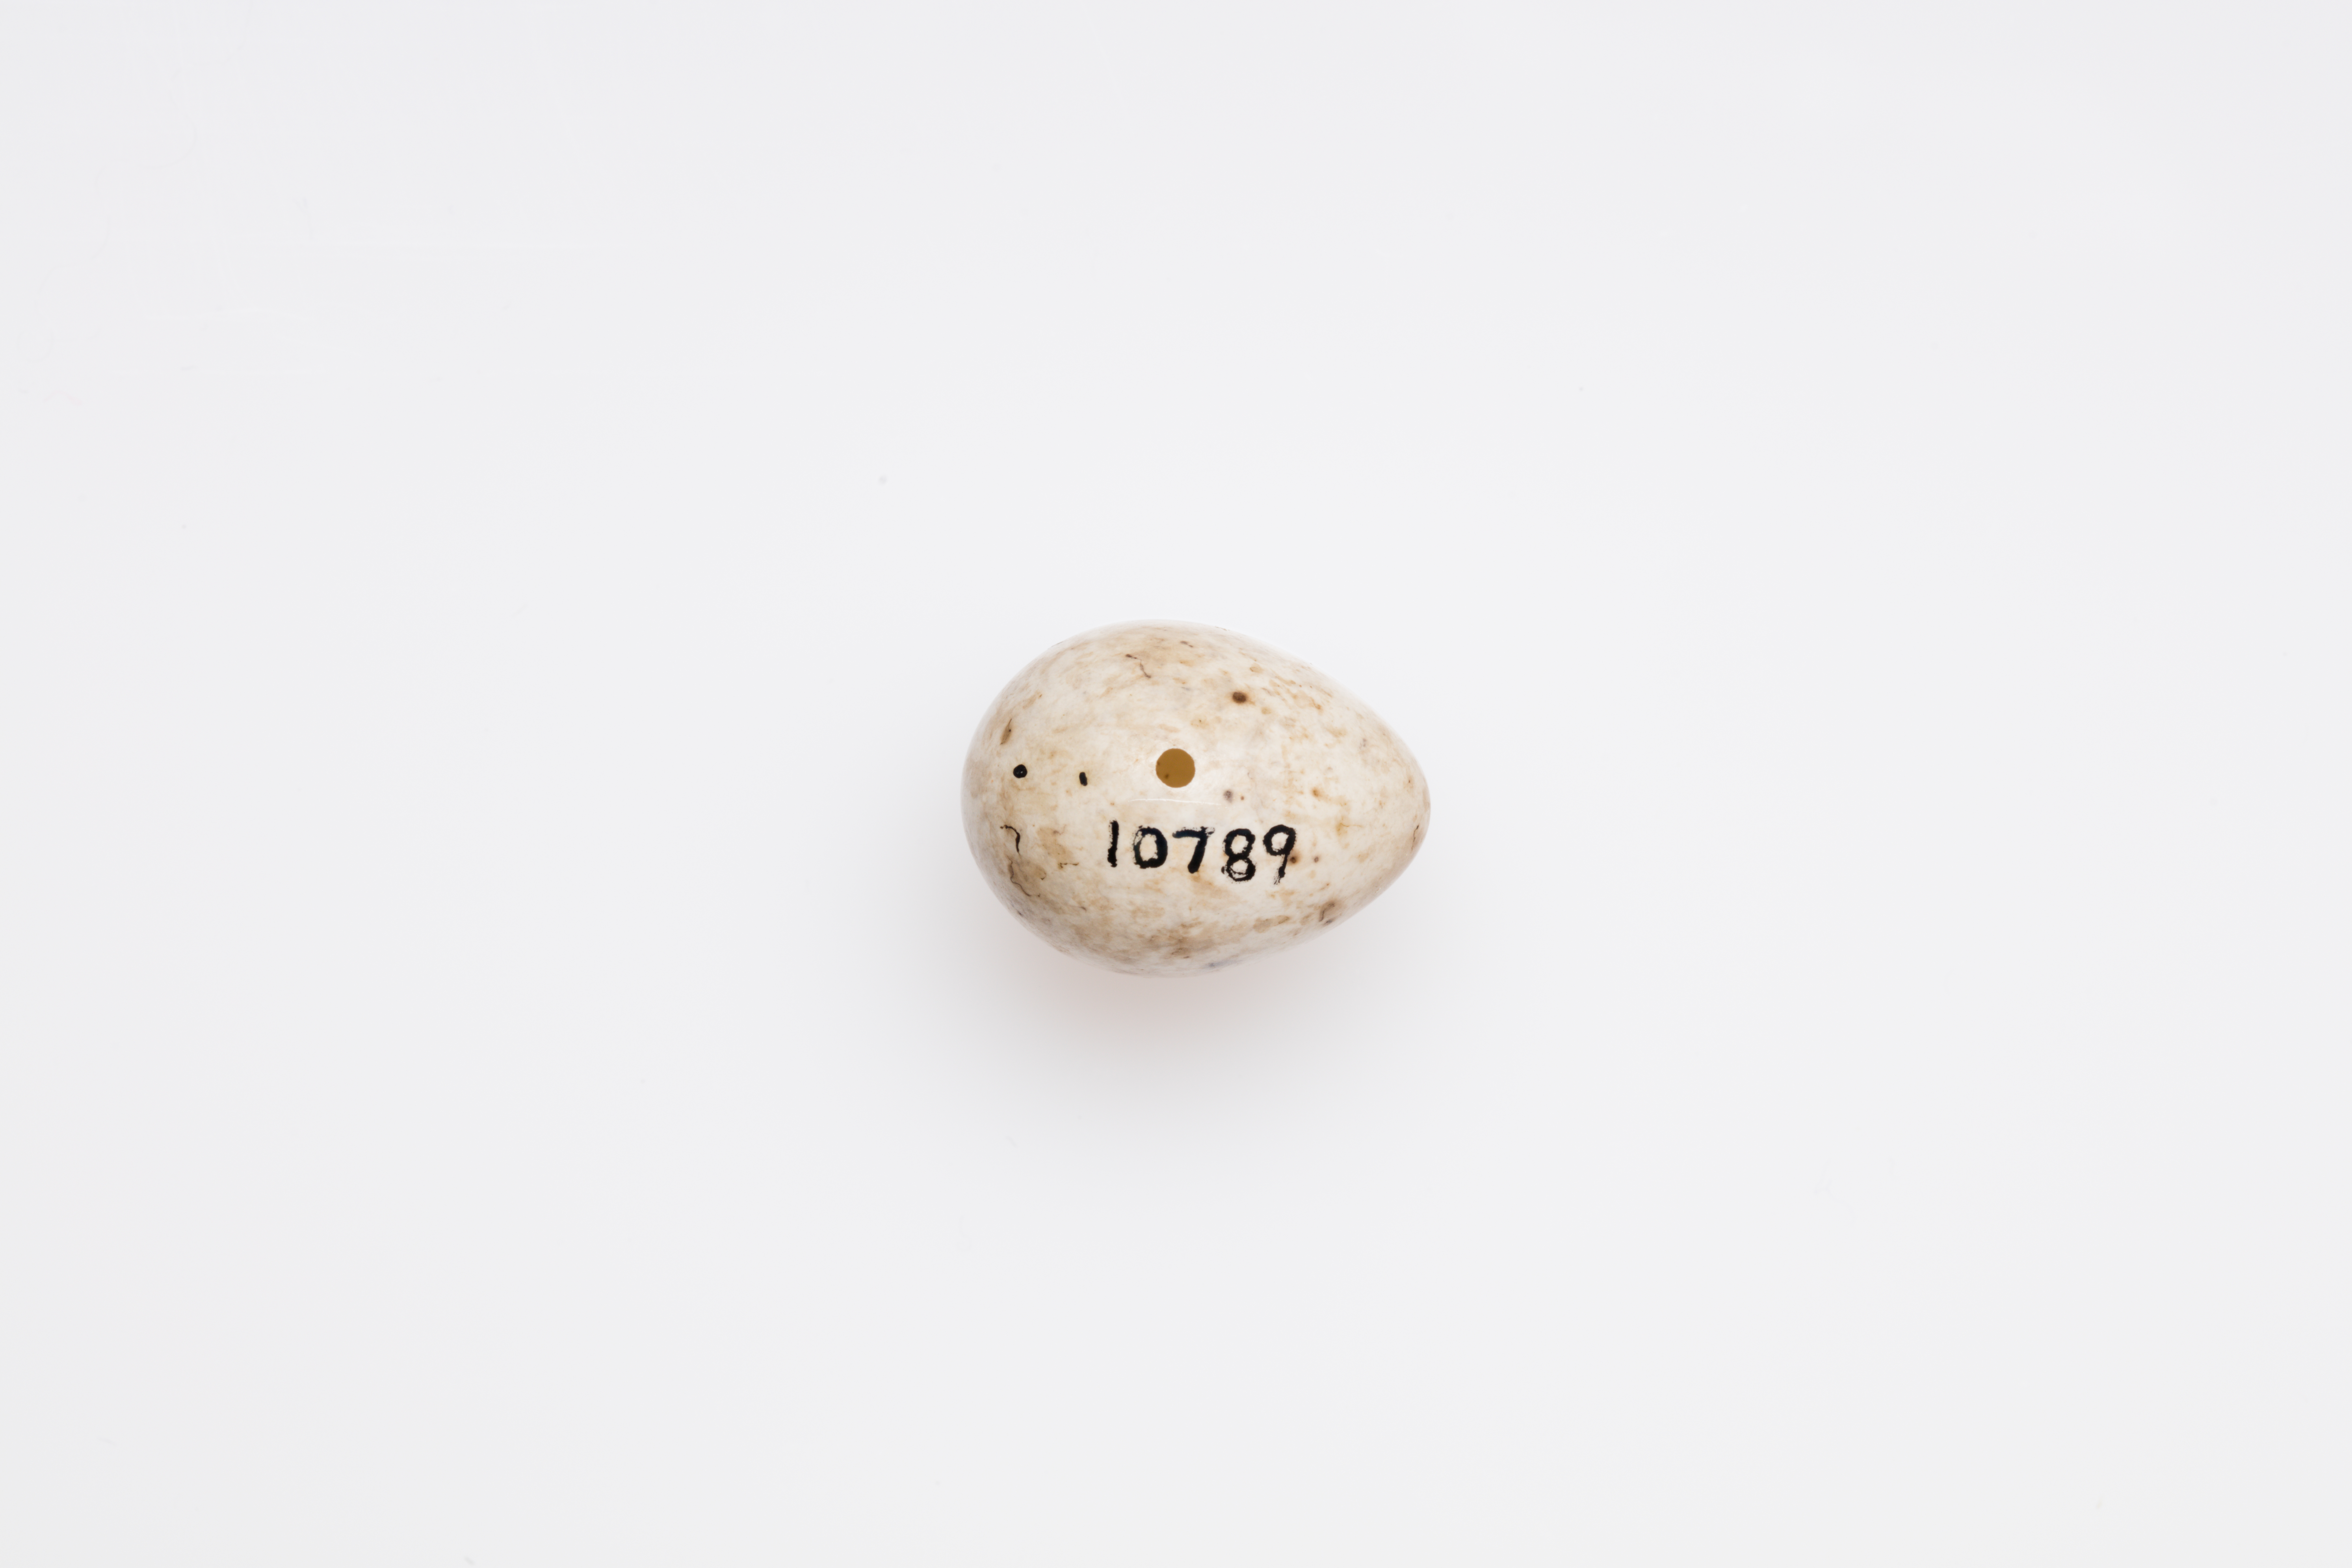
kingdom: Animalia
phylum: Chordata
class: Aves
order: Passeriformes
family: Sylviidae
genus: Sylvia
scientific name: Sylvia atricapilla
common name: Eurasian blackcap
